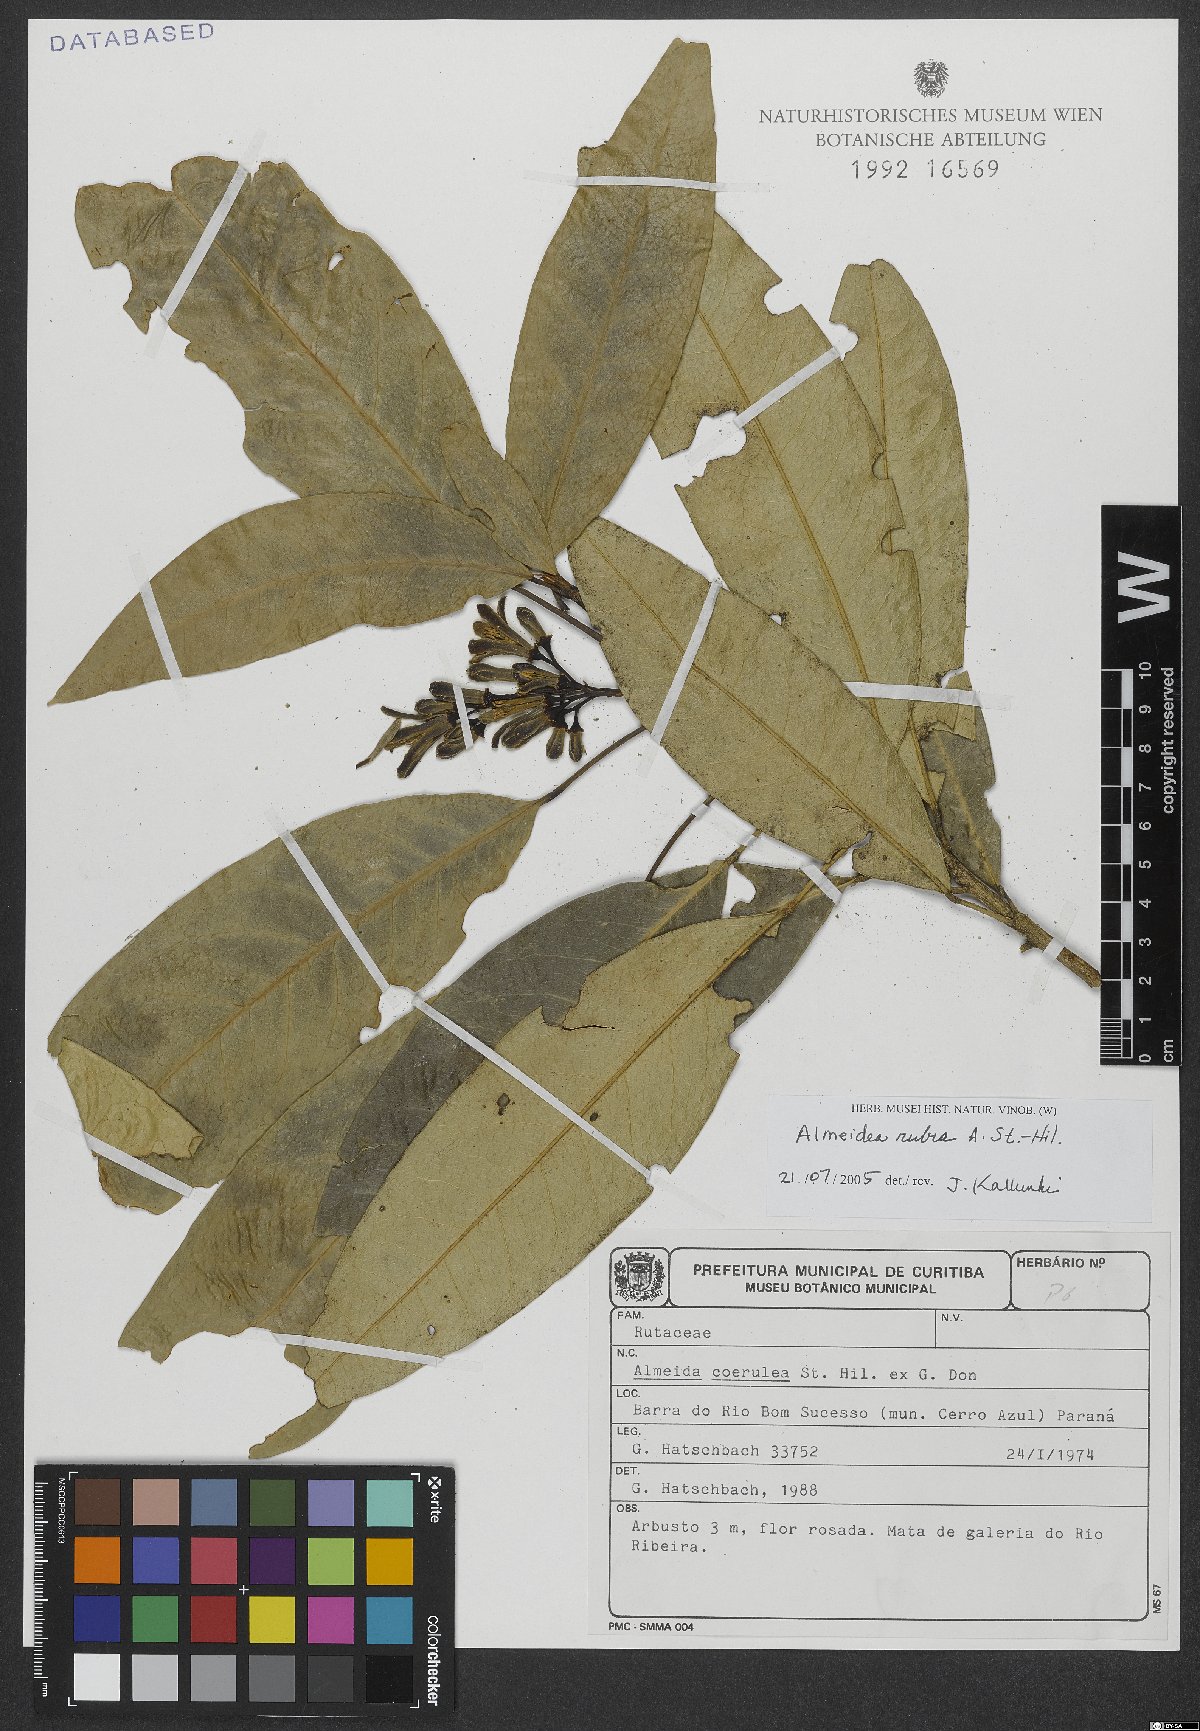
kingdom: Plantae
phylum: Tracheophyta
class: Magnoliopsida
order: Sapindales
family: Rutaceae
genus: Conchocarpus
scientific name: Conchocarpus ruber
